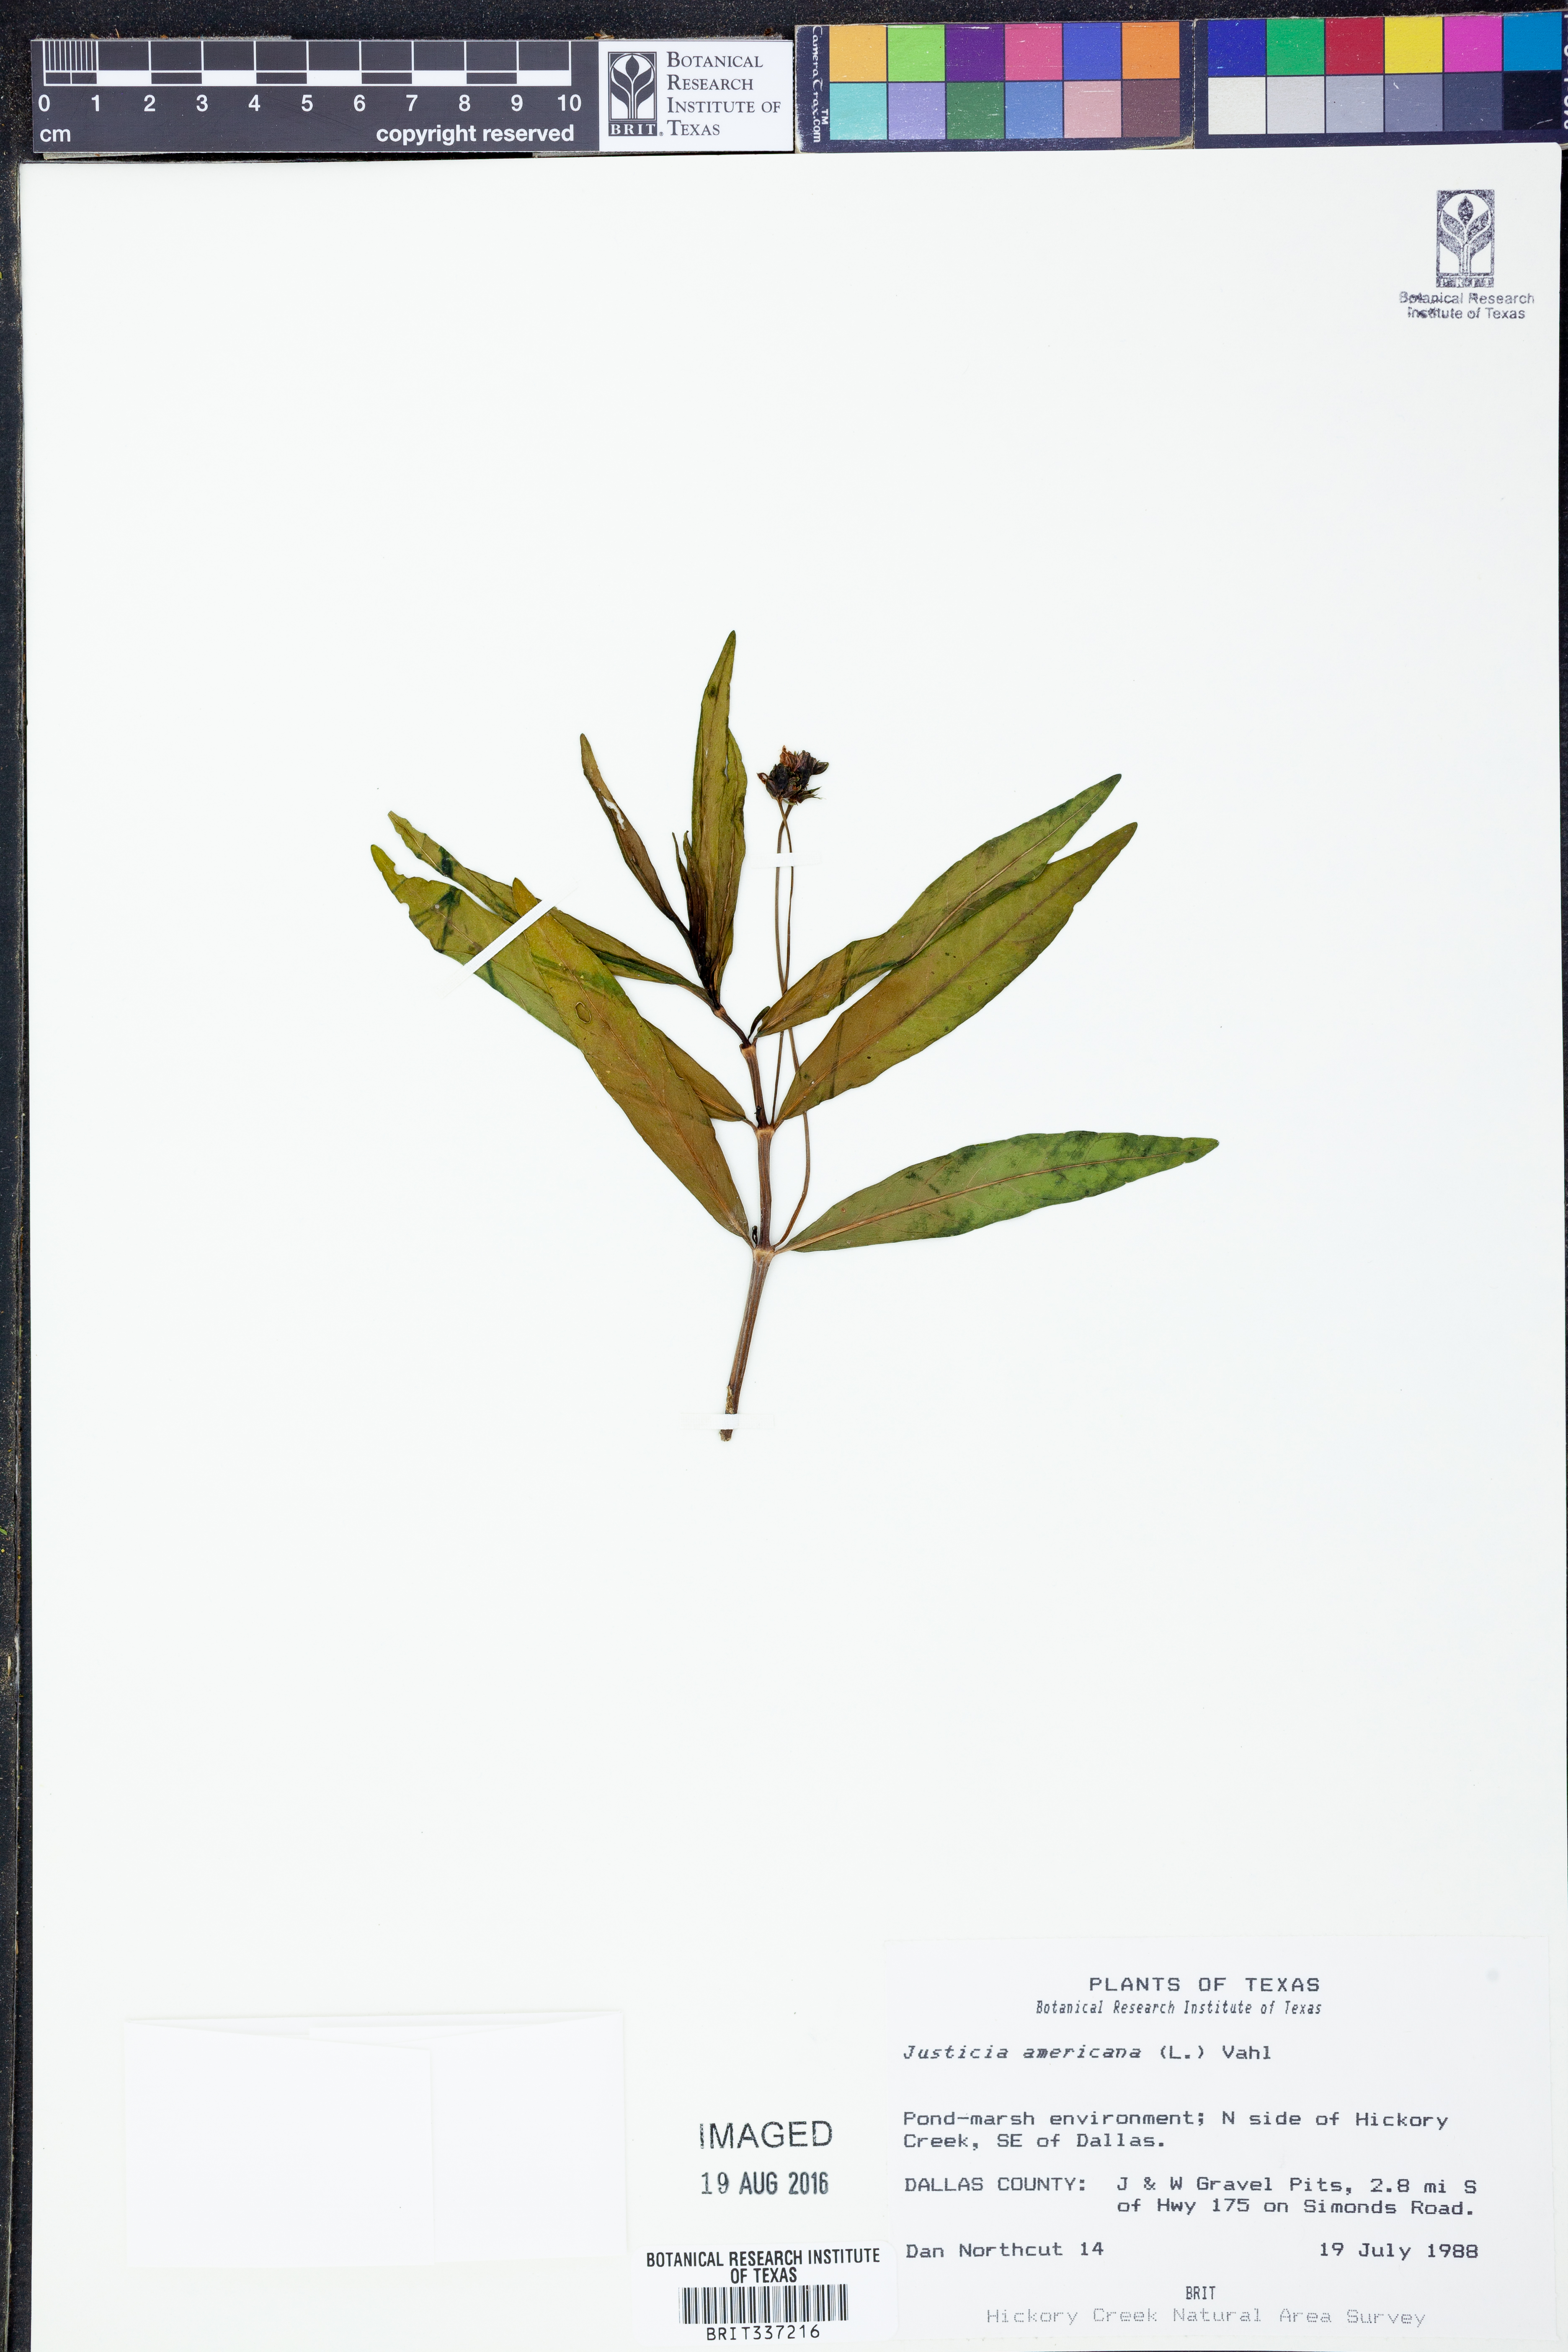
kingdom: Plantae
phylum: Tracheophyta
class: Magnoliopsida
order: Lamiales
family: Acanthaceae
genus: Dianthera
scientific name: Dianthera americana
